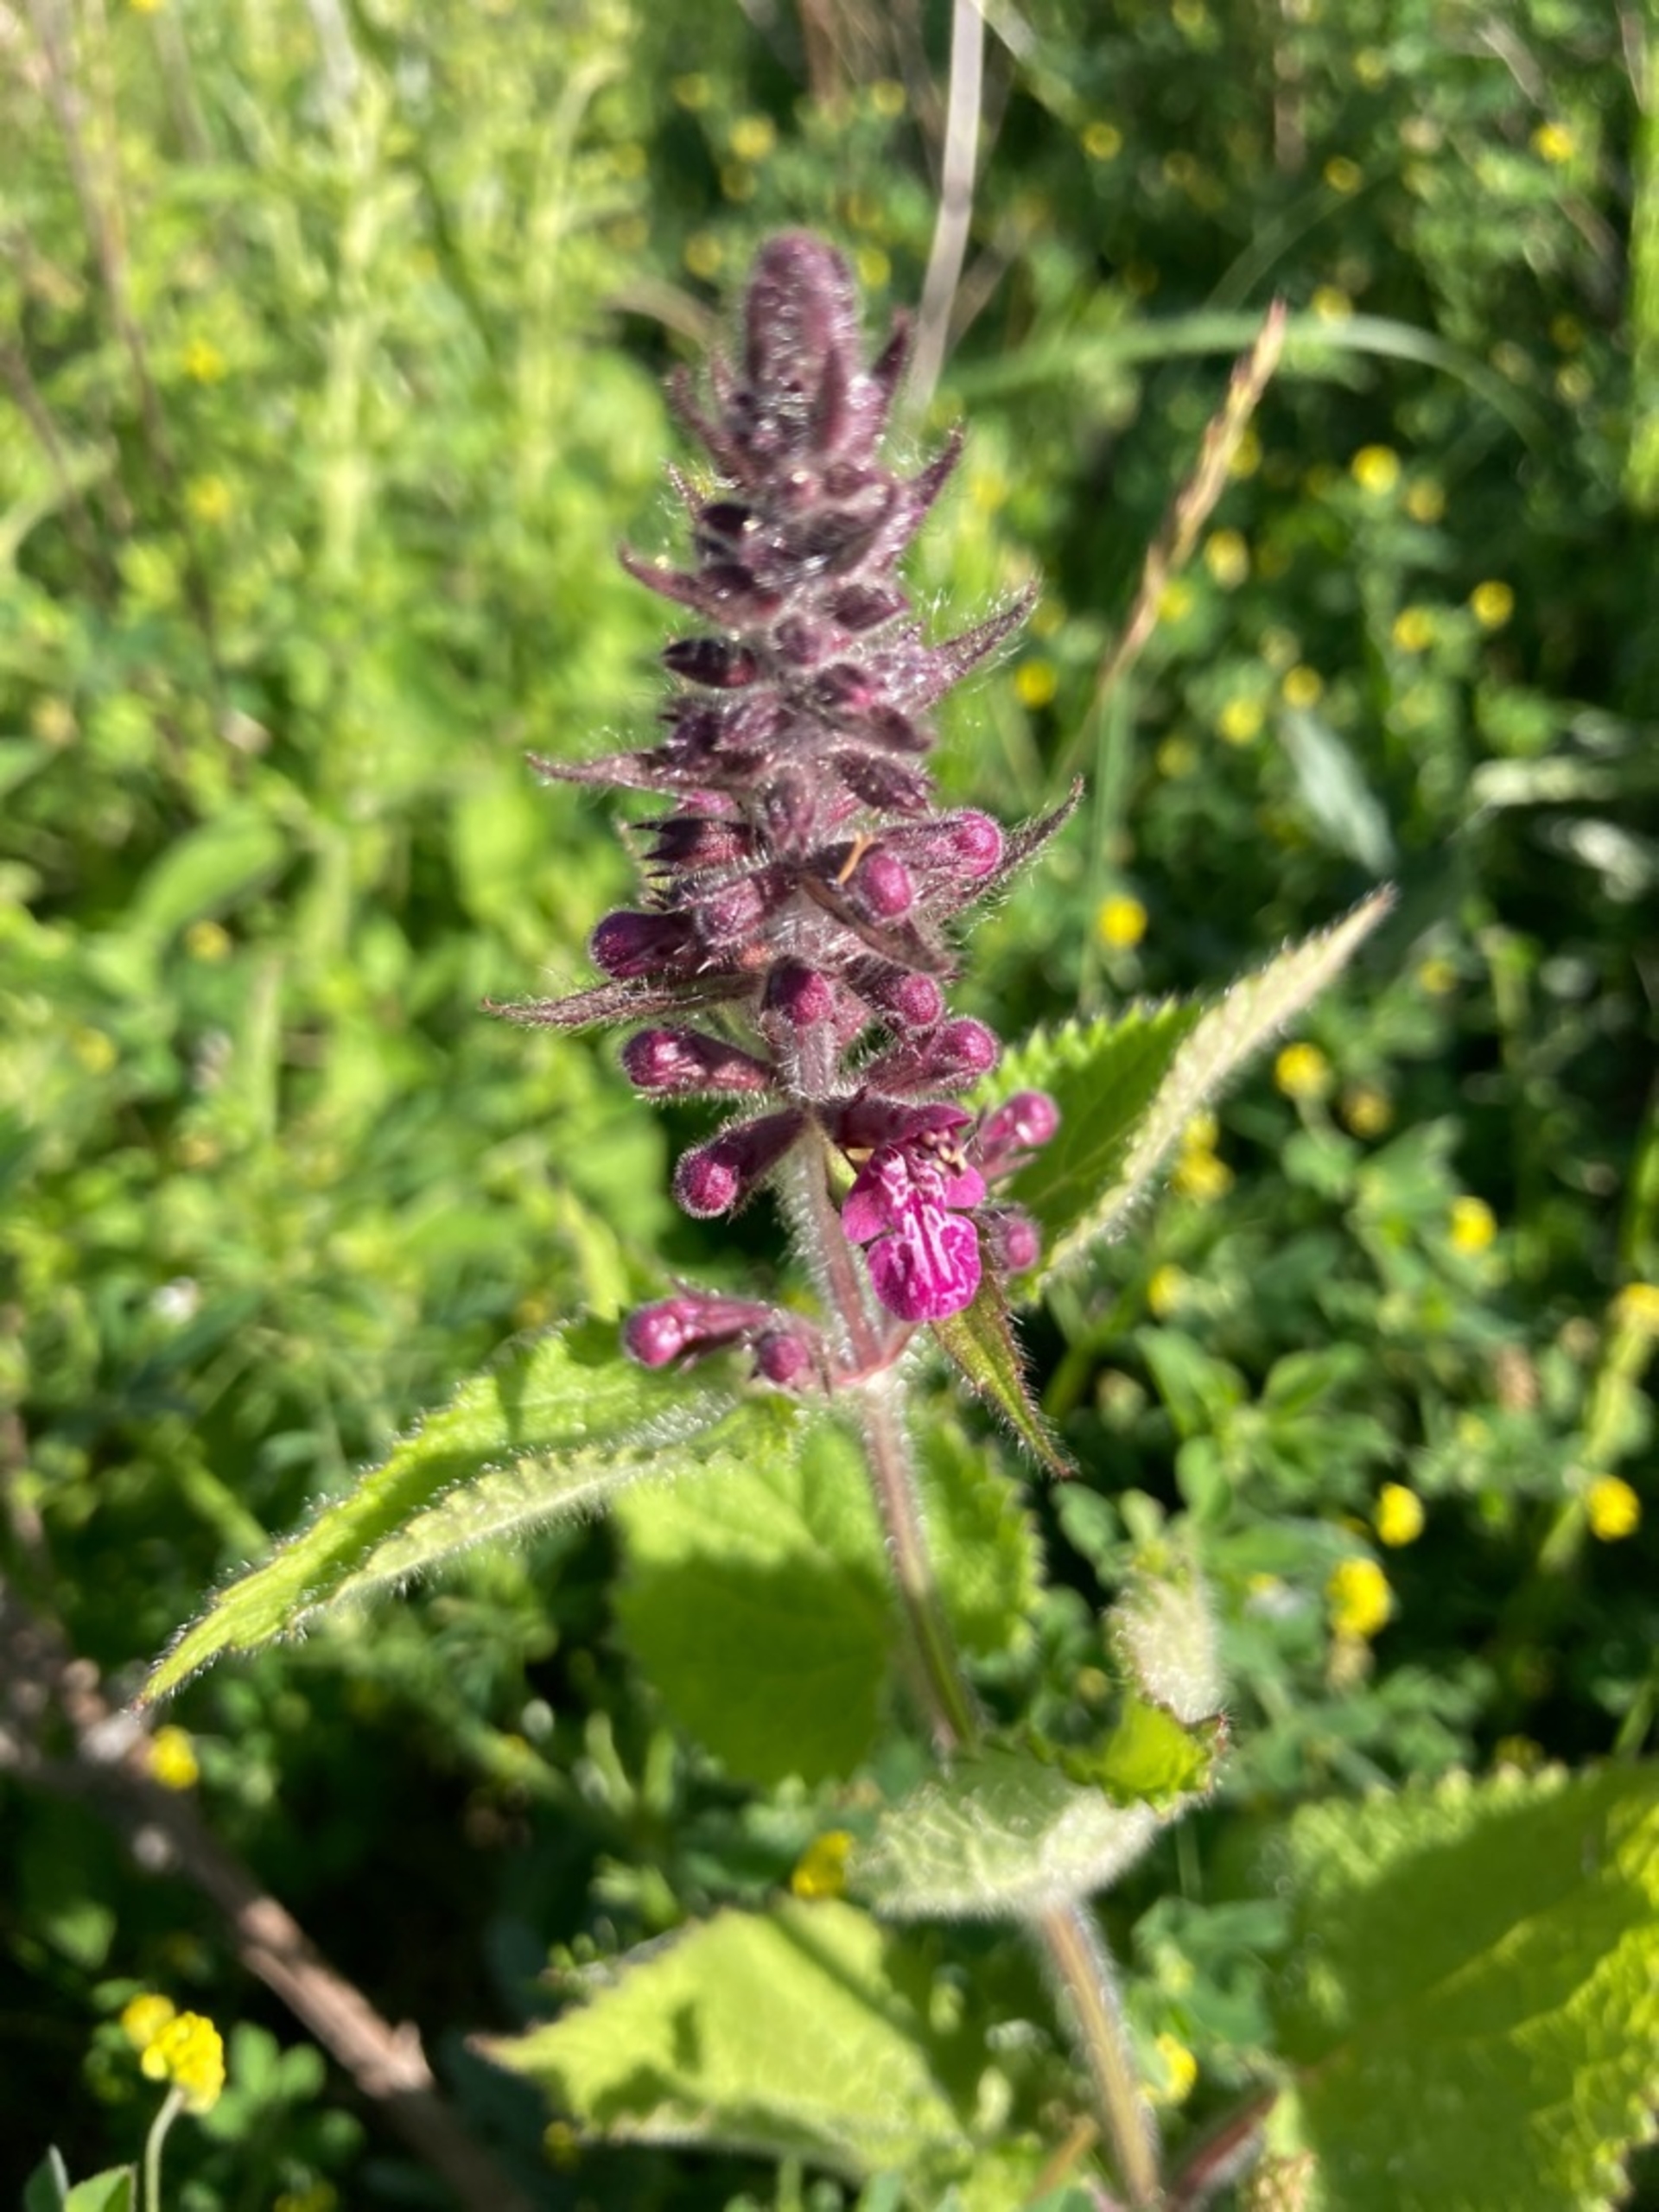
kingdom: Plantae
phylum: Tracheophyta
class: Magnoliopsida
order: Lamiales
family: Lamiaceae
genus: Stachys
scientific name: Stachys sylvatica
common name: Skov-galtetand
